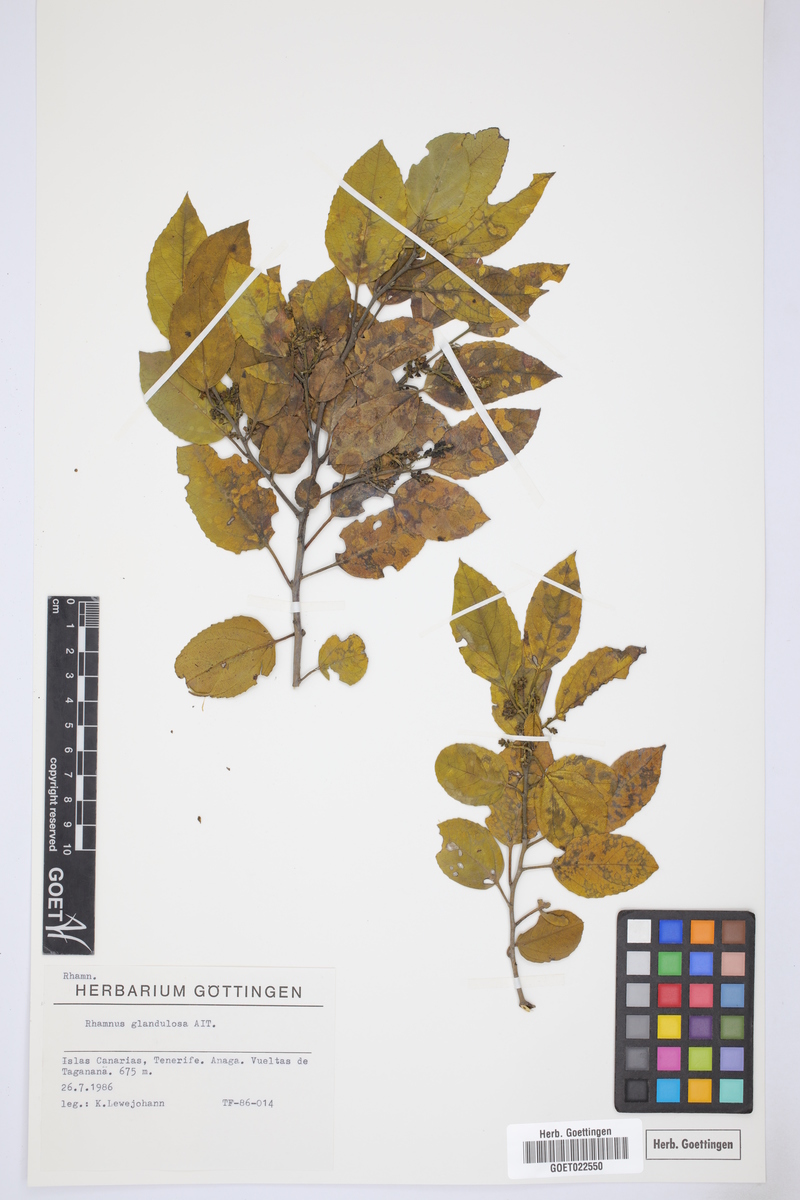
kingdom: Plantae
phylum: Tracheophyta
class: Magnoliopsida
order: Rosales
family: Rhamnaceae
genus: Rhamnus
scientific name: Rhamnus glandulosa
